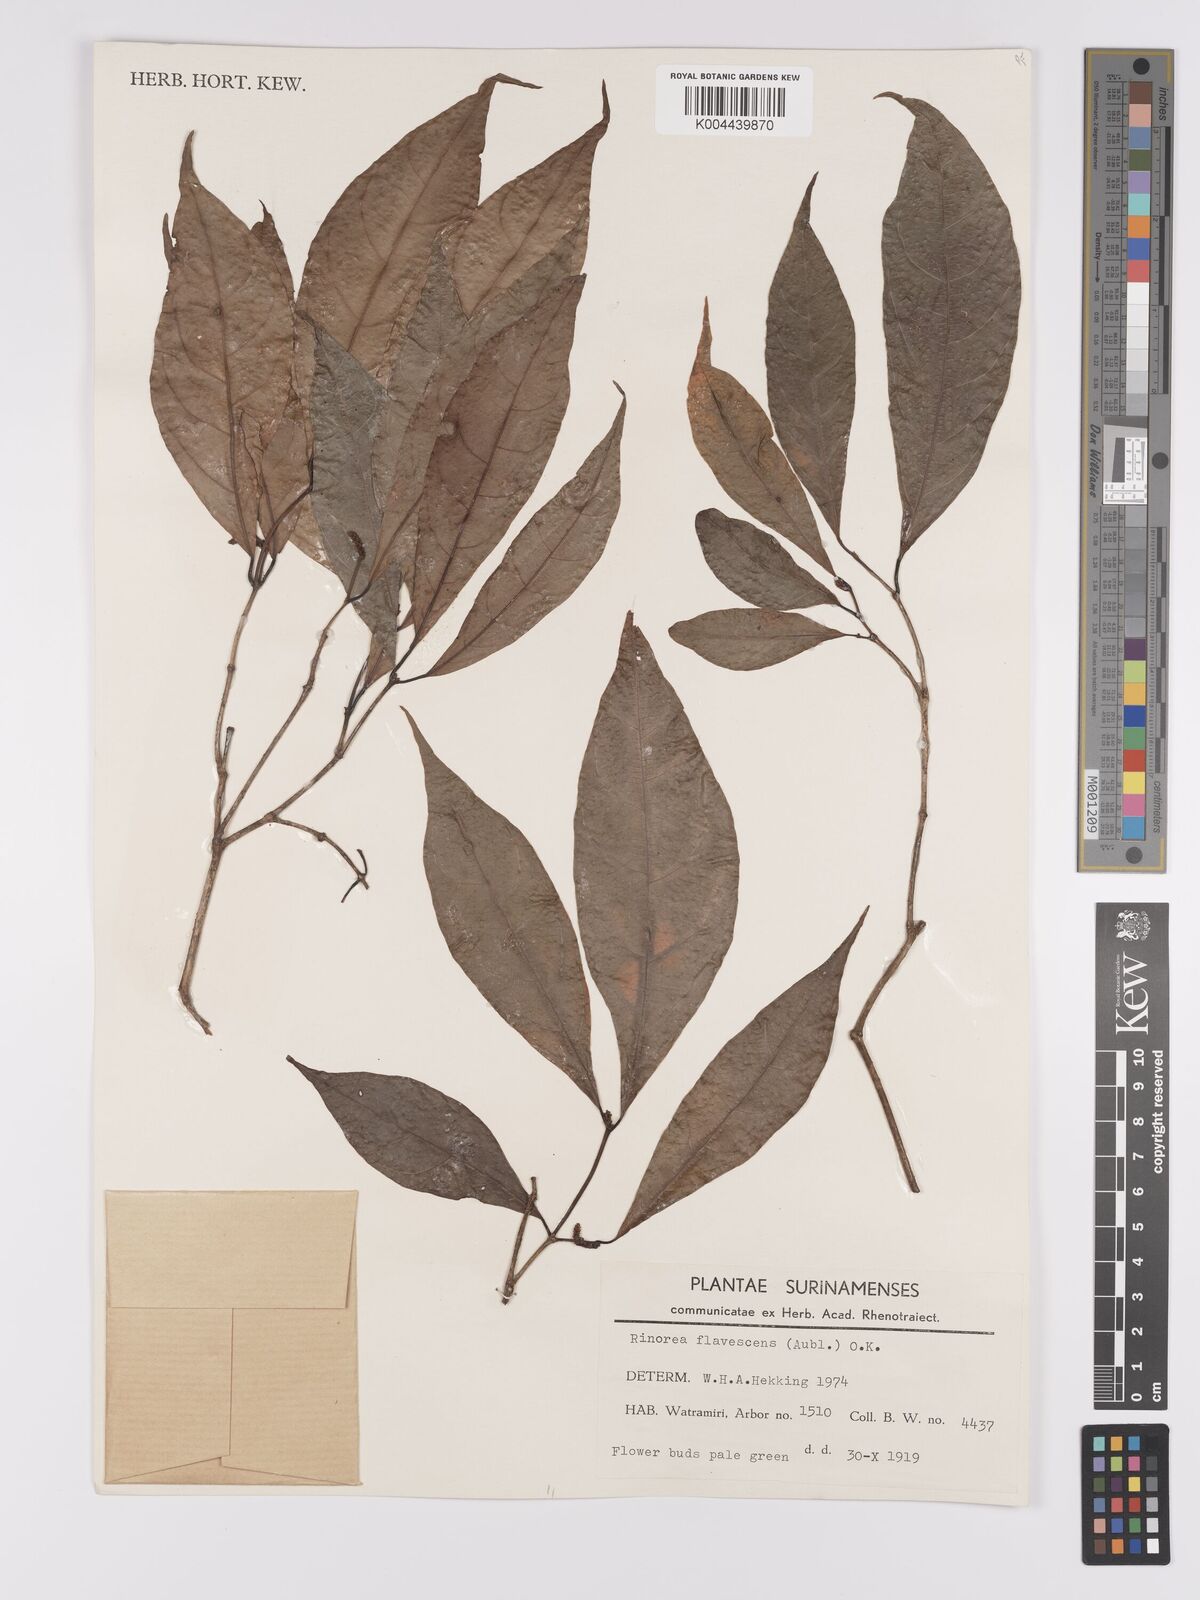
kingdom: Plantae
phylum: Tracheophyta
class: Magnoliopsida
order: Malpighiales
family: Violaceae
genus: Rinorea
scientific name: Rinorea flavescens
